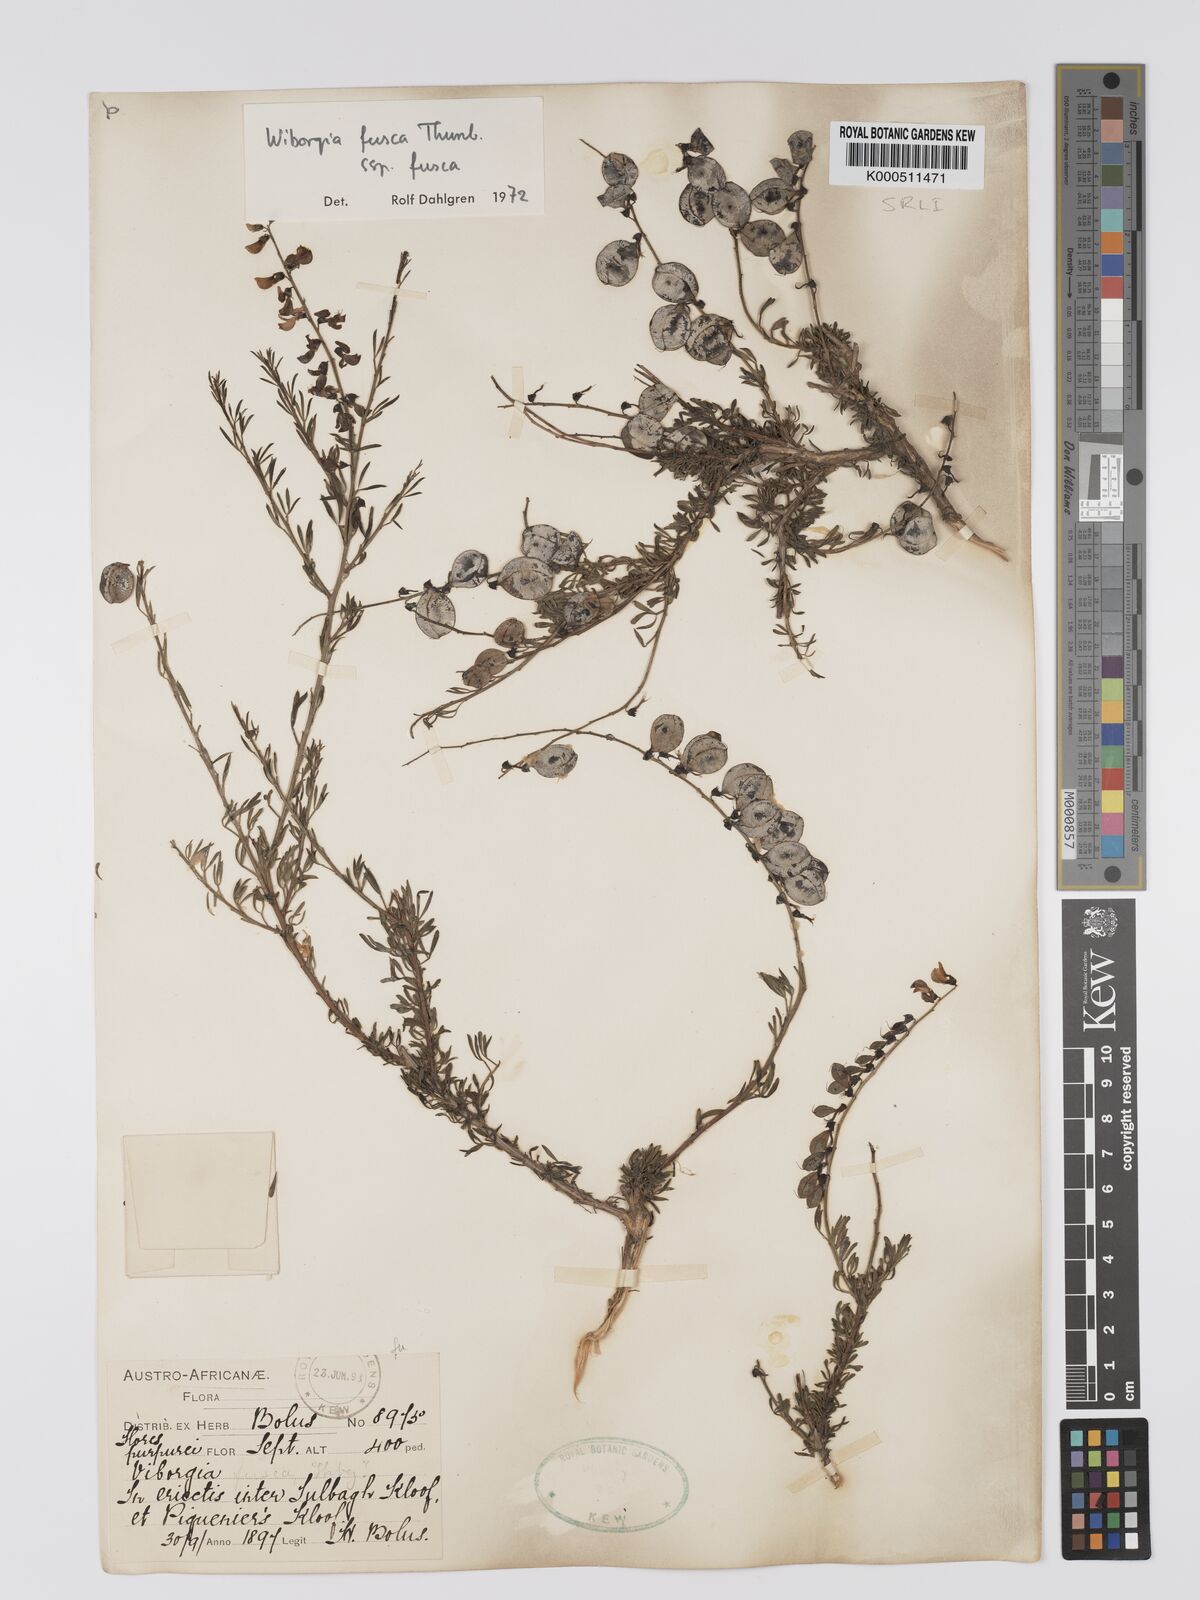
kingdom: Plantae
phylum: Tracheophyta
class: Magnoliopsida
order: Fabales
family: Fabaceae
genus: Wiborgia
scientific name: Wiborgia fusca
